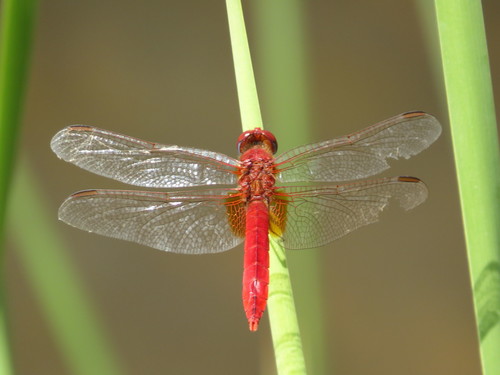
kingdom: Animalia
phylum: Arthropoda
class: Insecta
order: Odonata
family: Libellulidae
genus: Crocothemis
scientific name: Crocothemis erythraea
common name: Scarlet dragonfly
